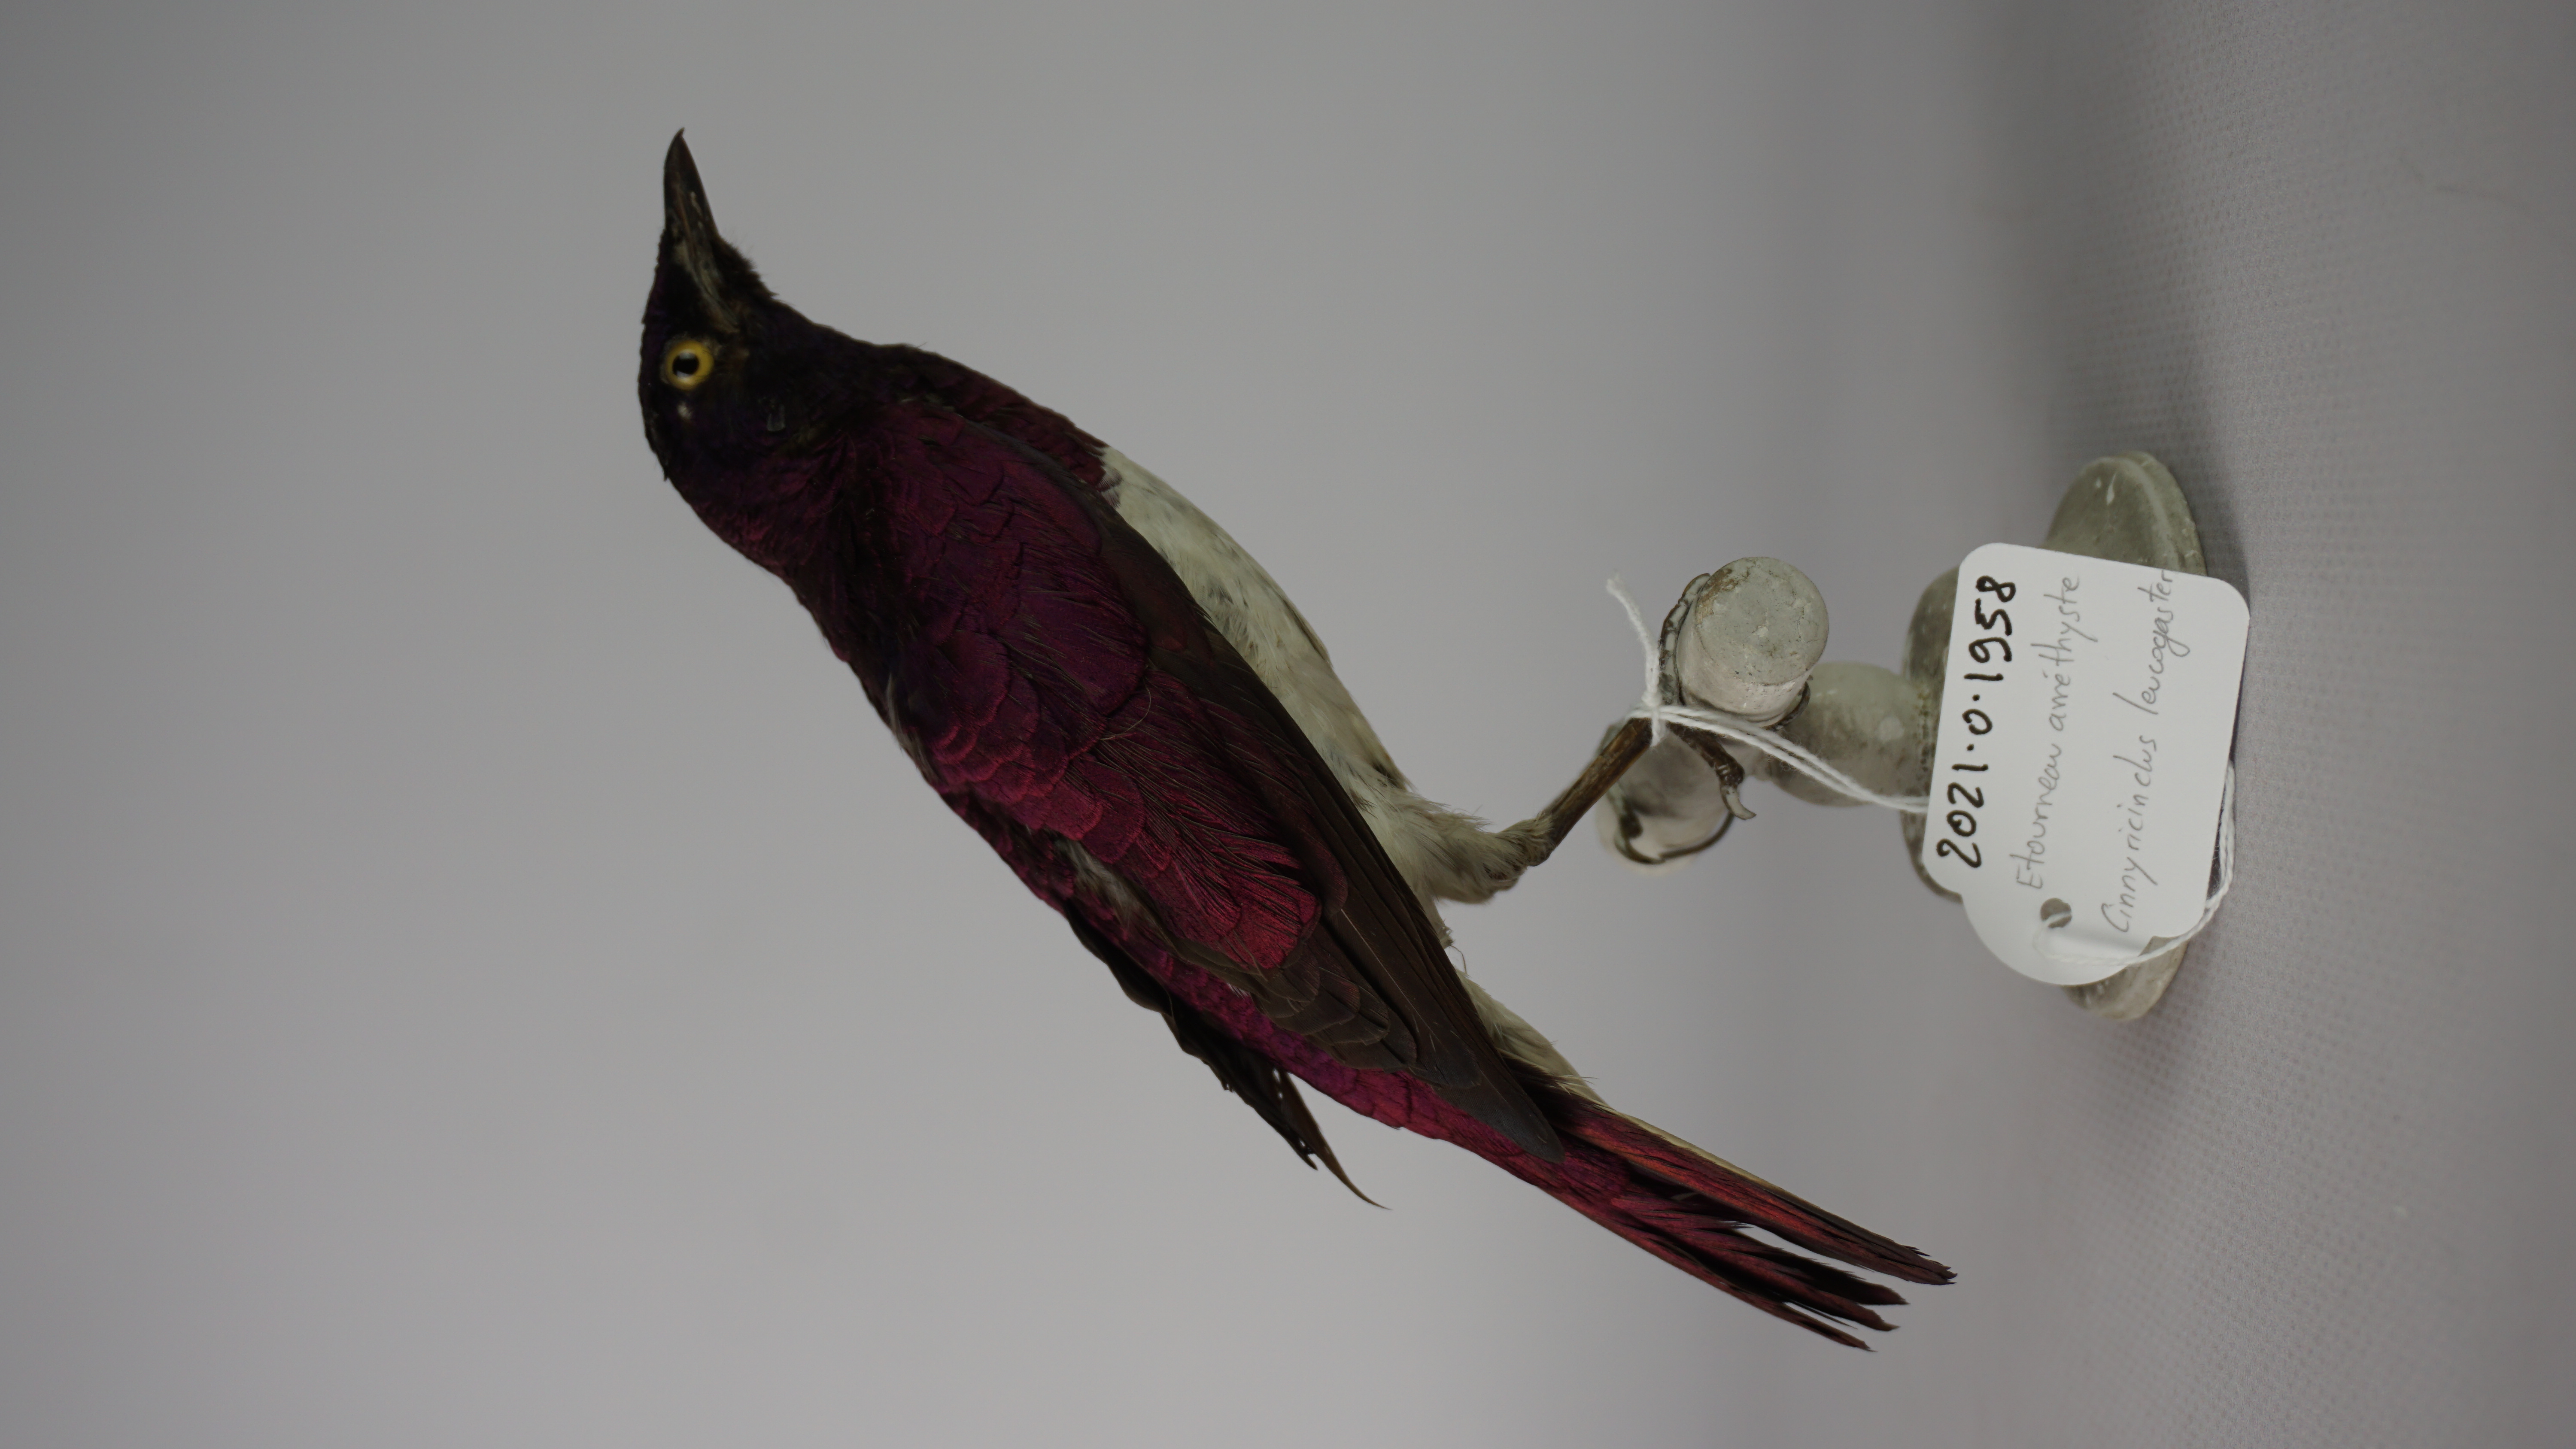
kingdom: Animalia
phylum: Chordata
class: Aves
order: Passeriformes
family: Sturnidae
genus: Cinnyricinclus
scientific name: Cinnyricinclus leucogaster
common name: Violet-backed starling
